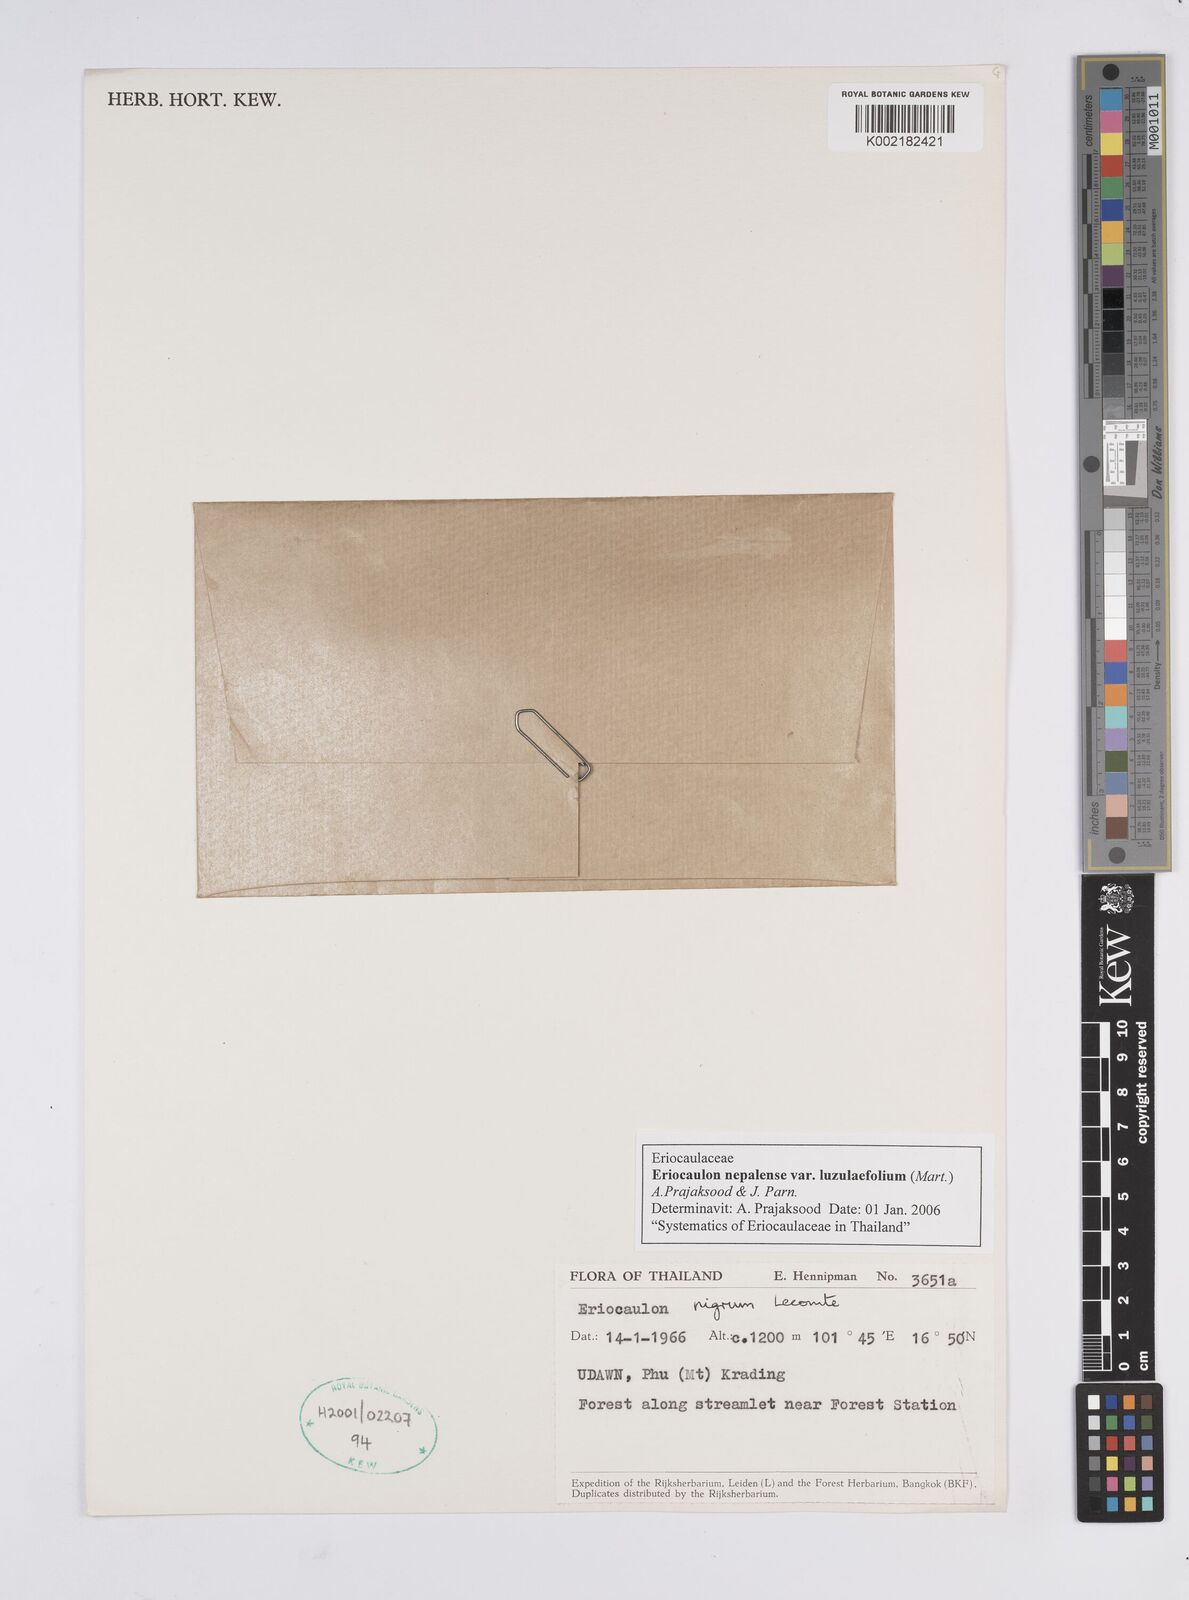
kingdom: Plantae
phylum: Tracheophyta
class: Liliopsida
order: Poales
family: Eriocaulaceae
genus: Eriocaulon
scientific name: Eriocaulon nepalense
